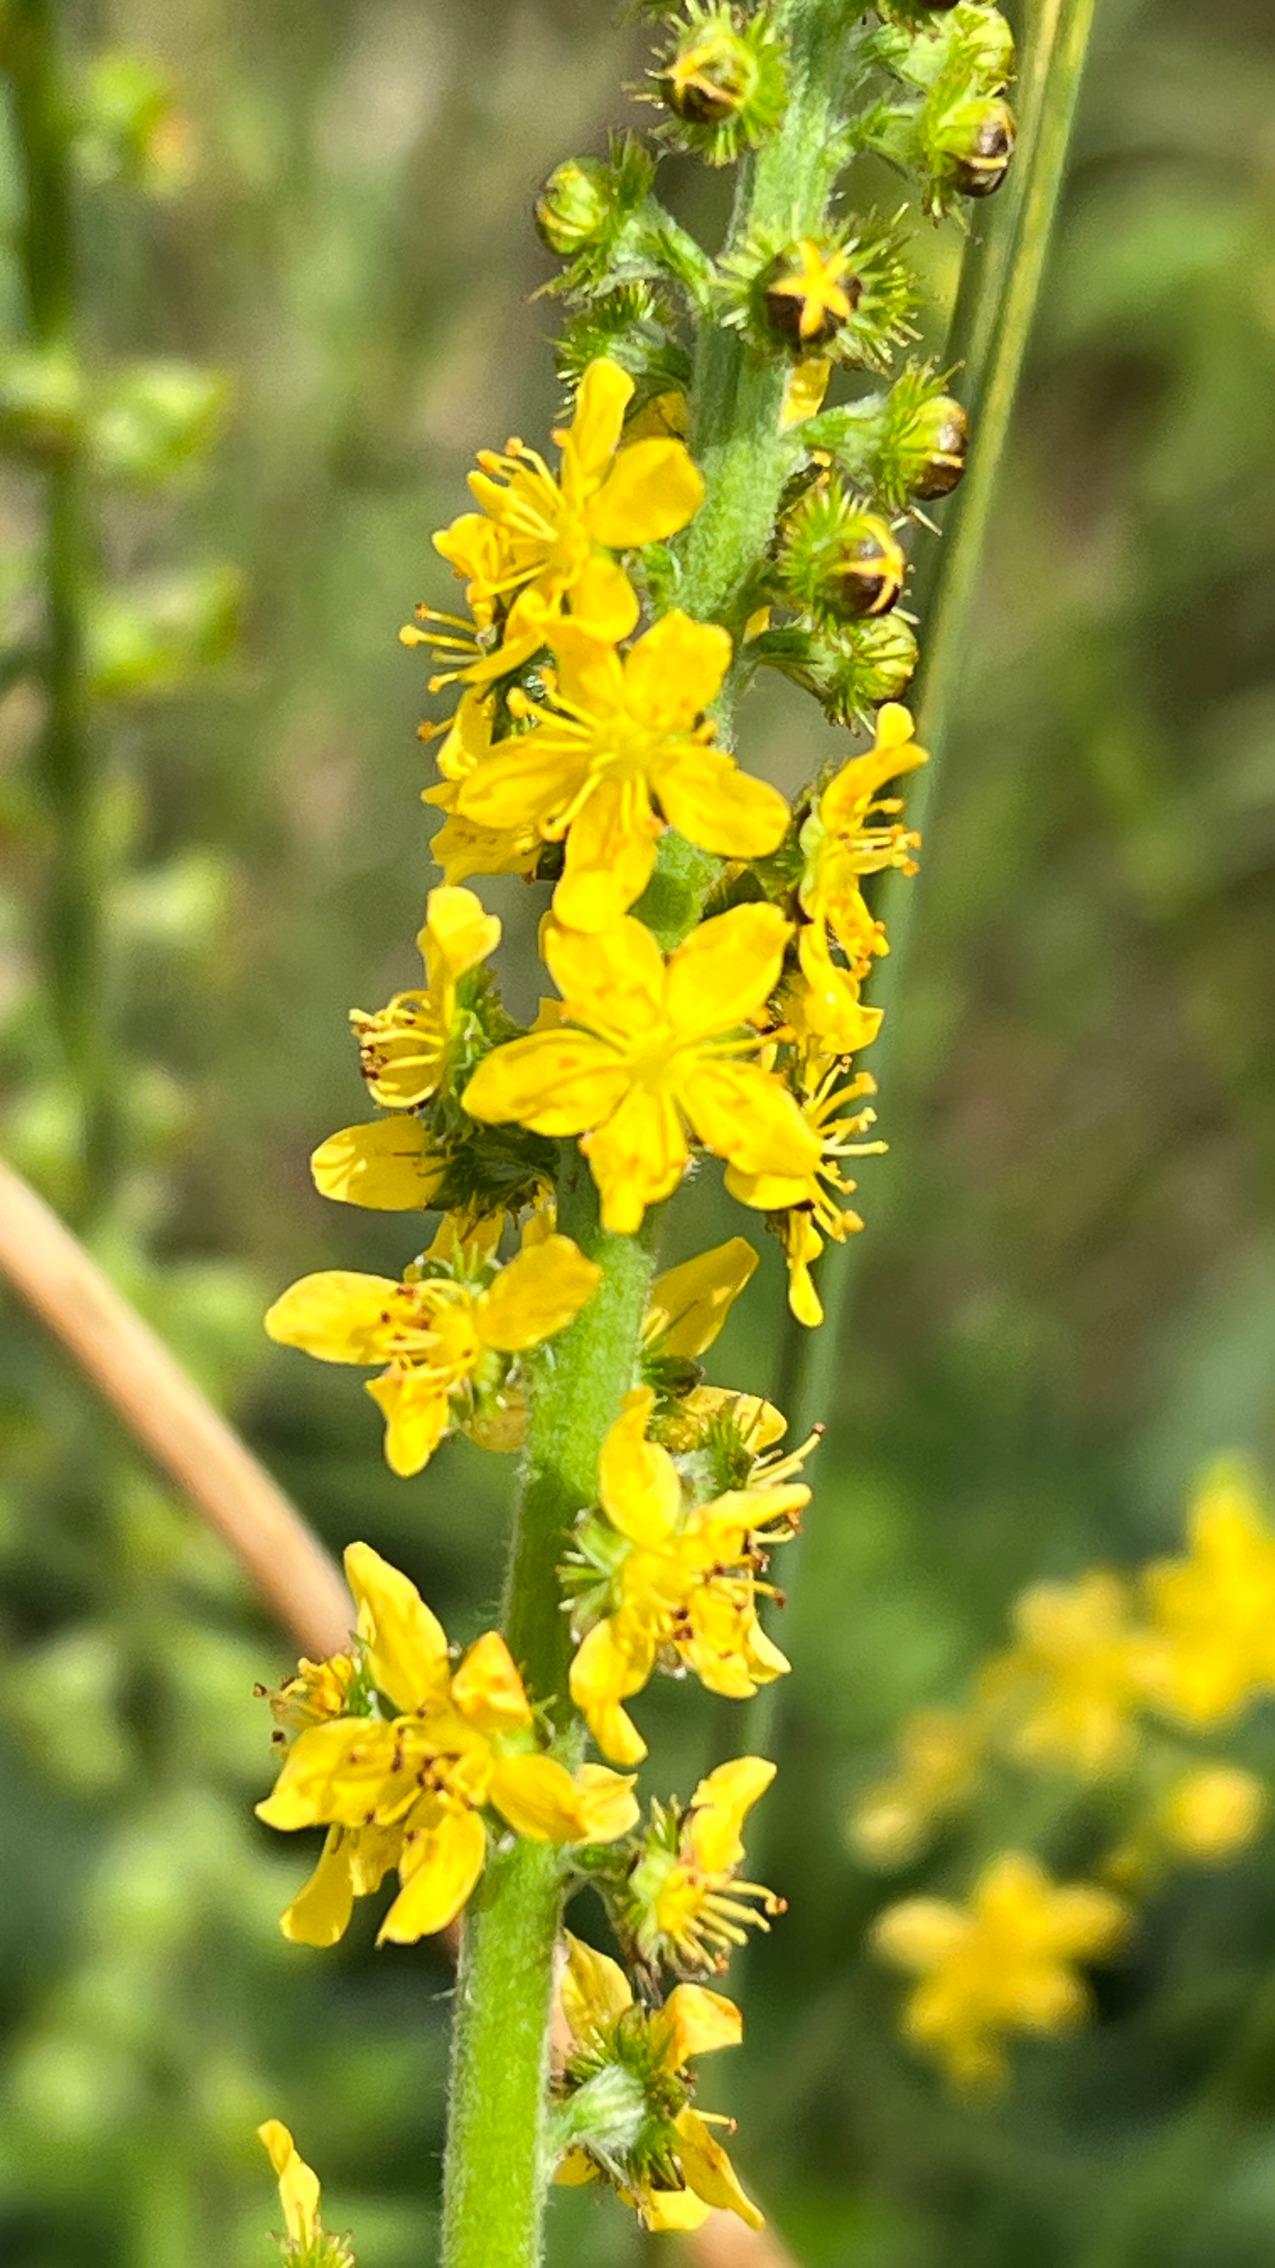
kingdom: Plantae
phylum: Tracheophyta
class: Magnoliopsida
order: Rosales
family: Rosaceae
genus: Agrimonia
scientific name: Agrimonia eupatoria
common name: Almindelig agermåne
